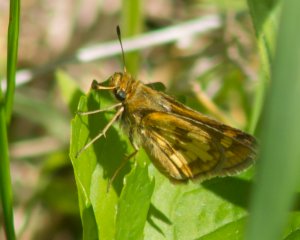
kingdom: Animalia
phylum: Arthropoda
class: Insecta
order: Lepidoptera
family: Hesperiidae
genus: Polites
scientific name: Polites coras
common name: Peck's Skipper
